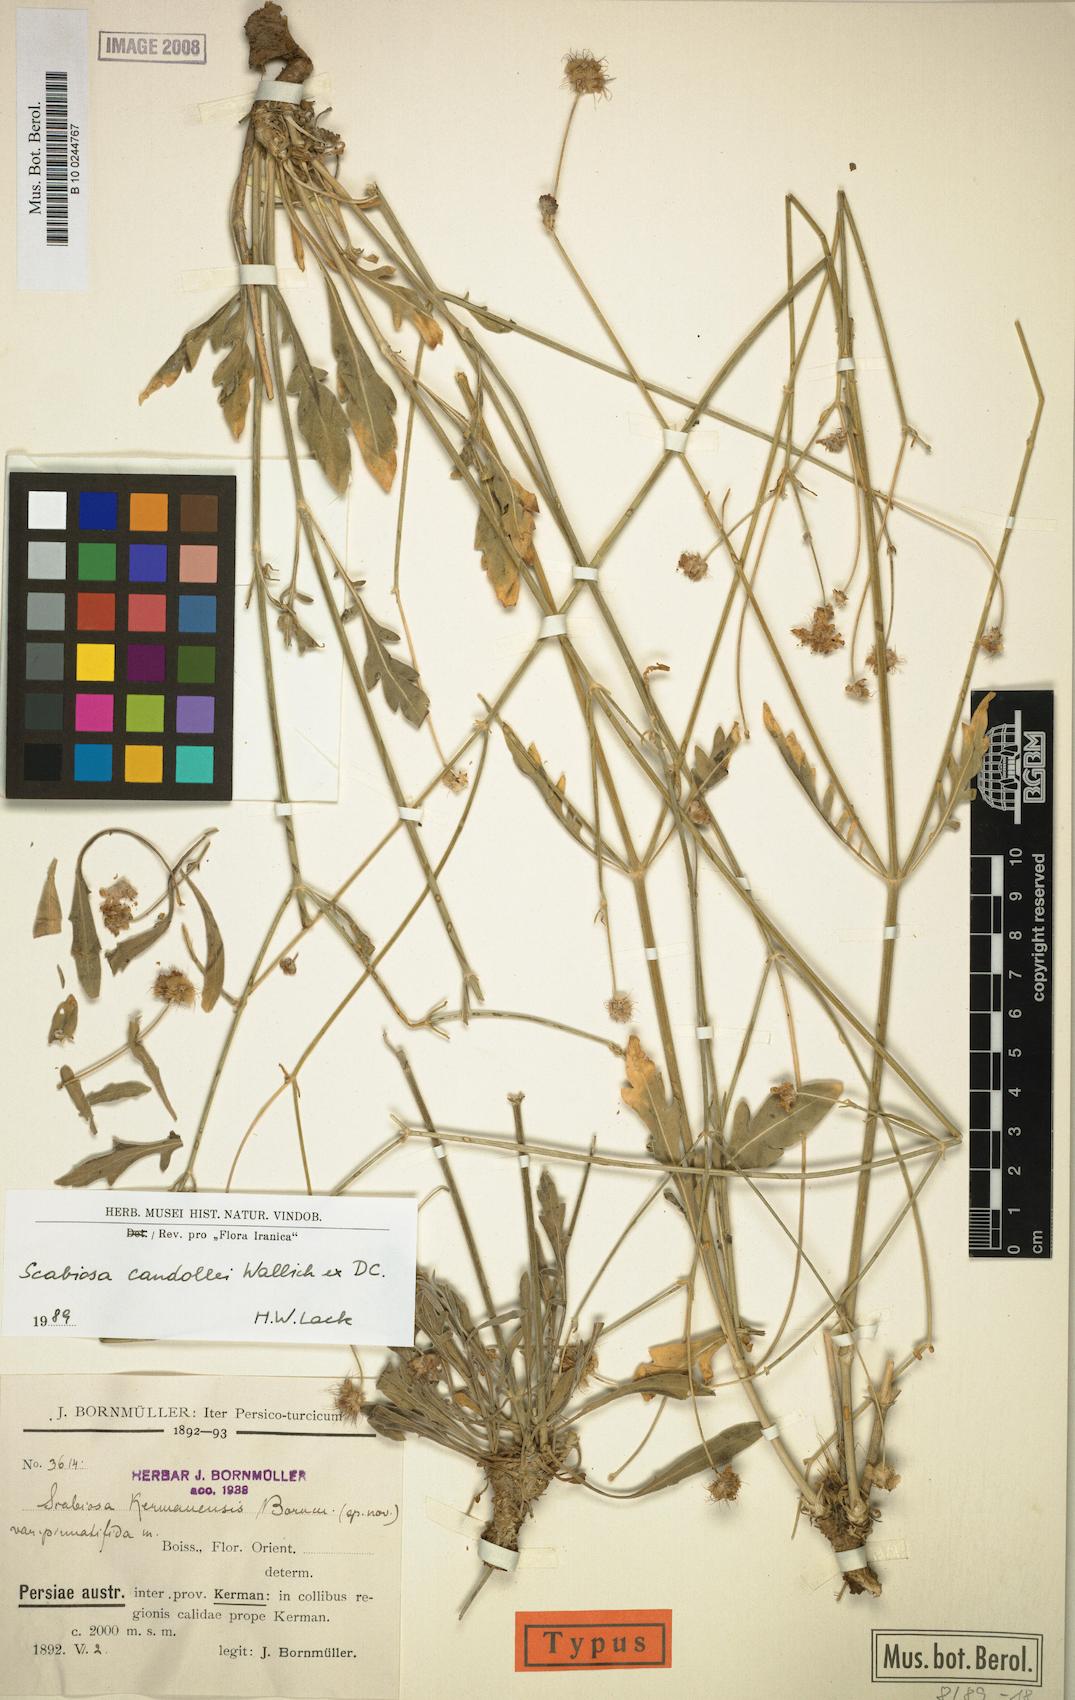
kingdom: Plantae
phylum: Tracheophyta
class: Magnoliopsida
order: Dipsacales
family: Caprifoliaceae
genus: Lomelosia
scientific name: Lomelosia candollei
